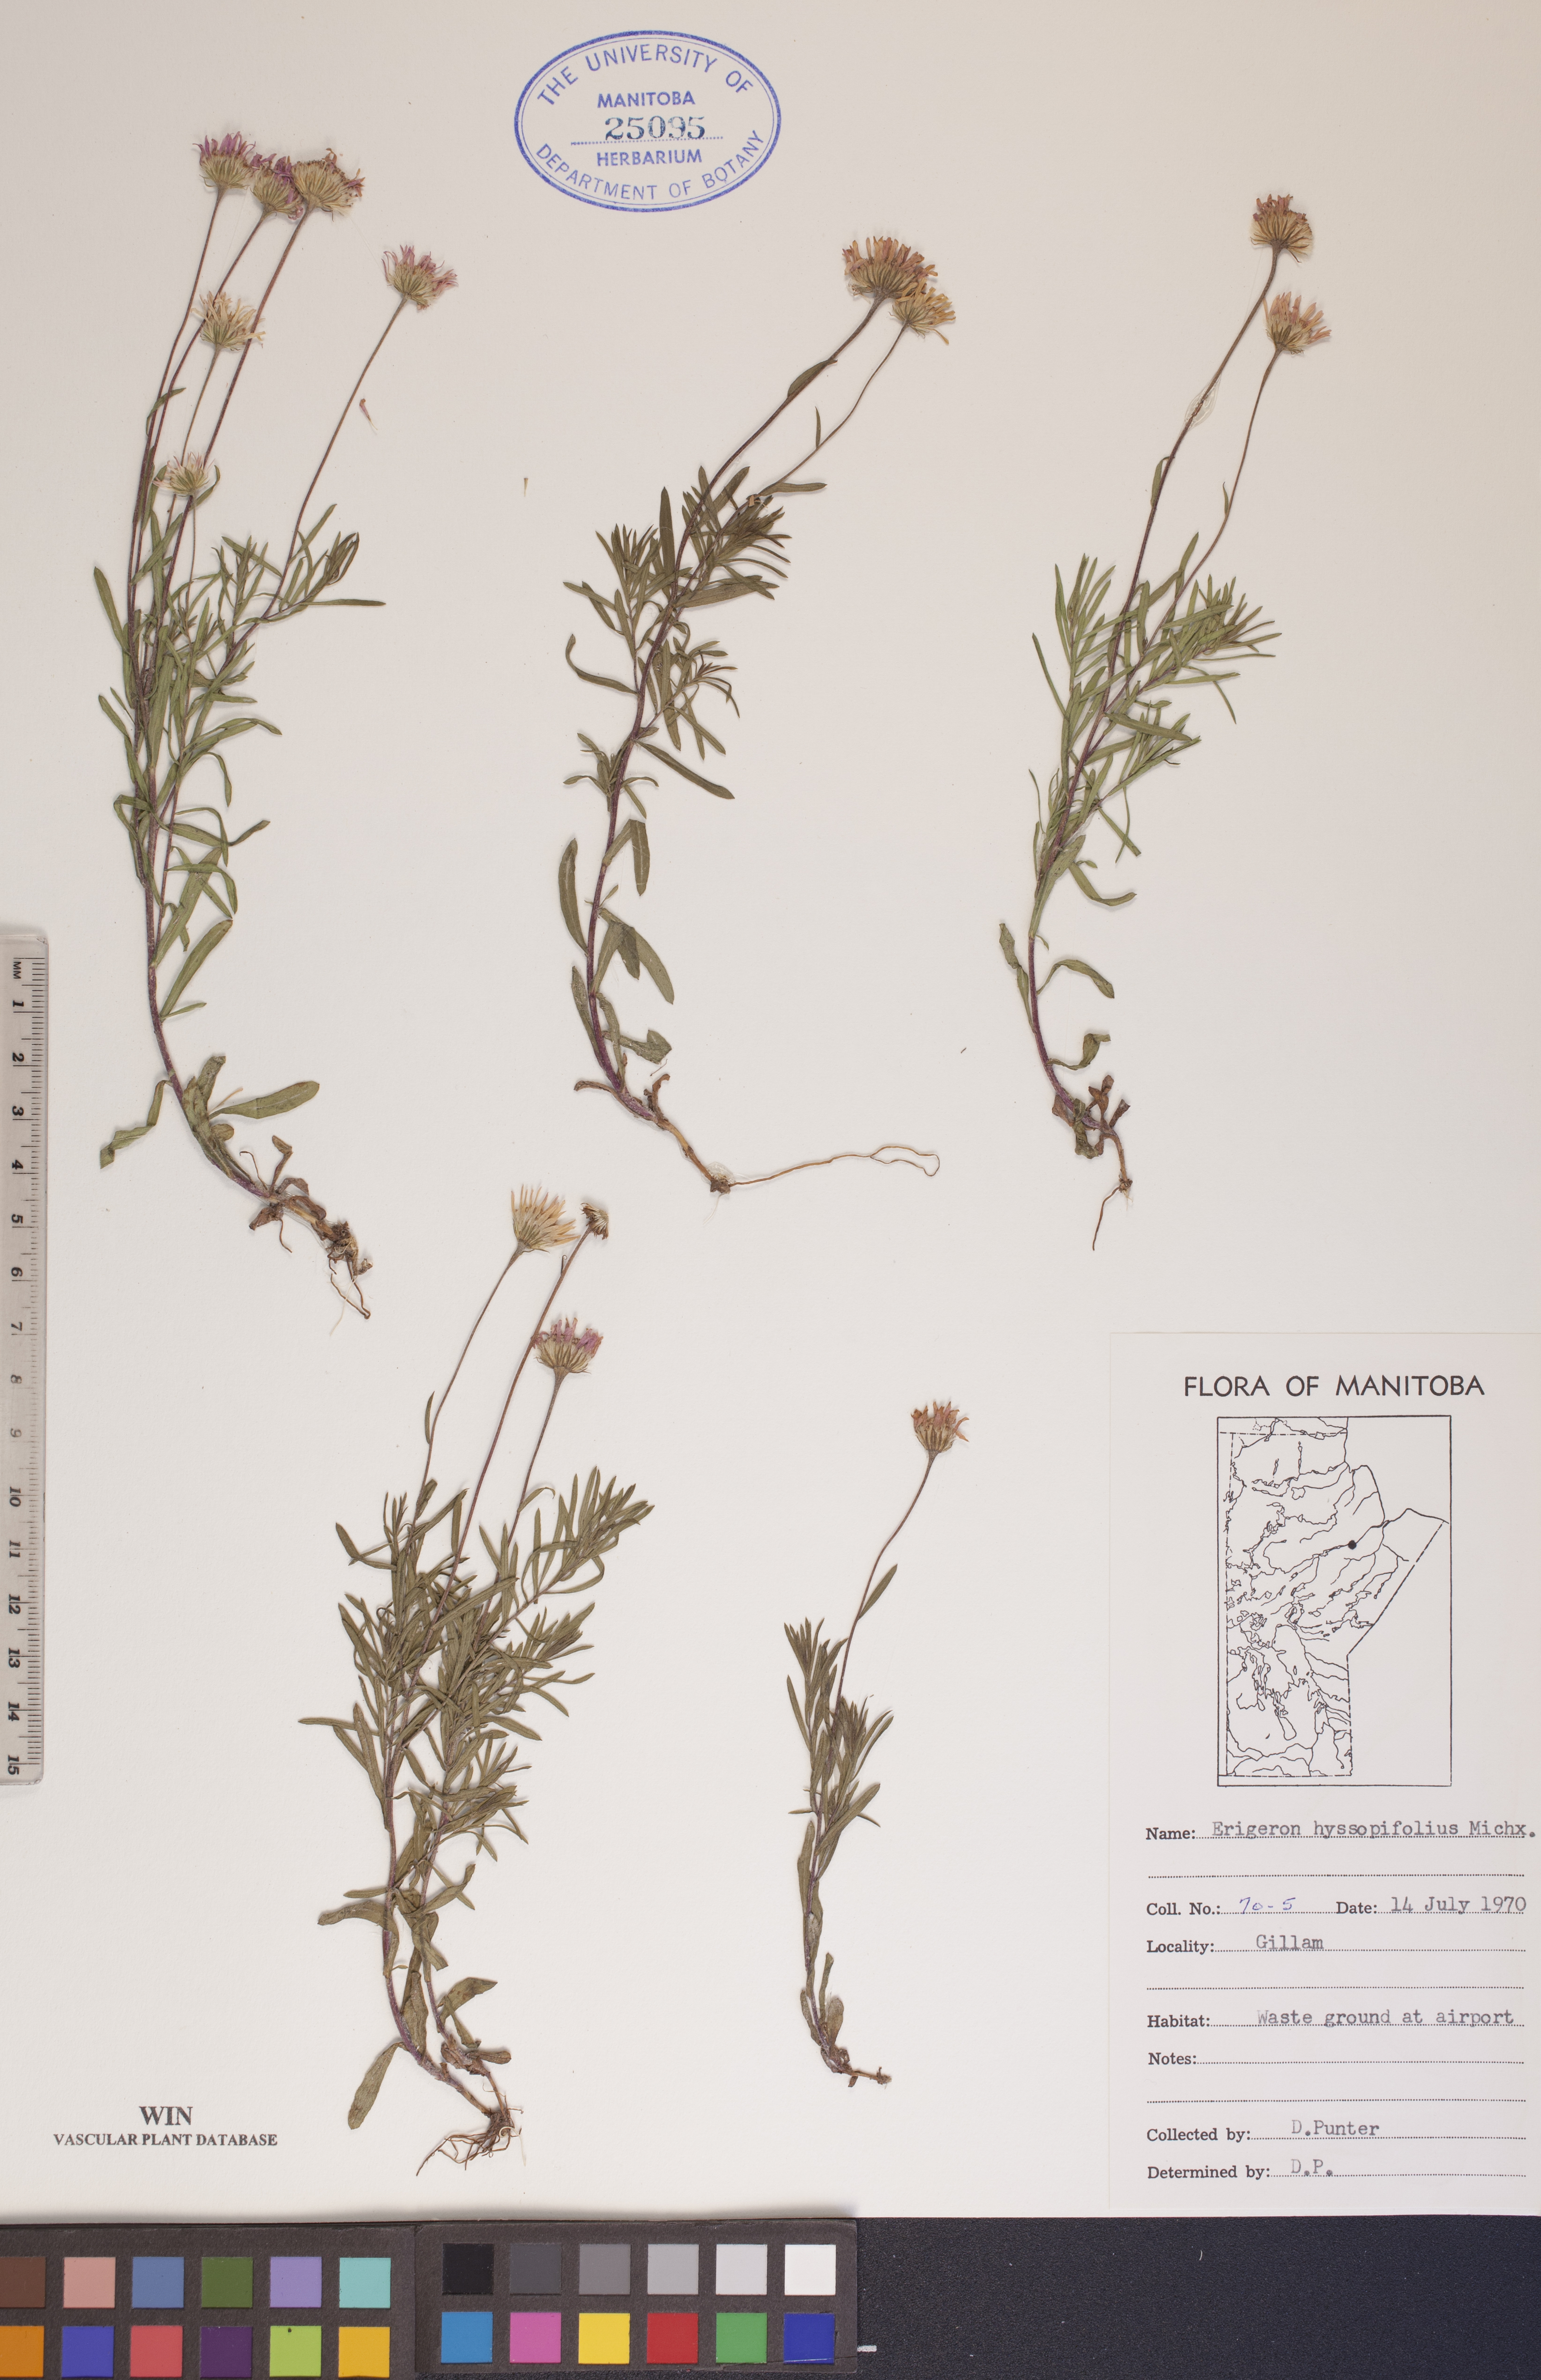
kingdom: Plantae
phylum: Tracheophyta
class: Magnoliopsida
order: Asterales
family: Asteraceae
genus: Erigeron
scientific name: Erigeron hyssopifolius
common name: Daisy fleabane
